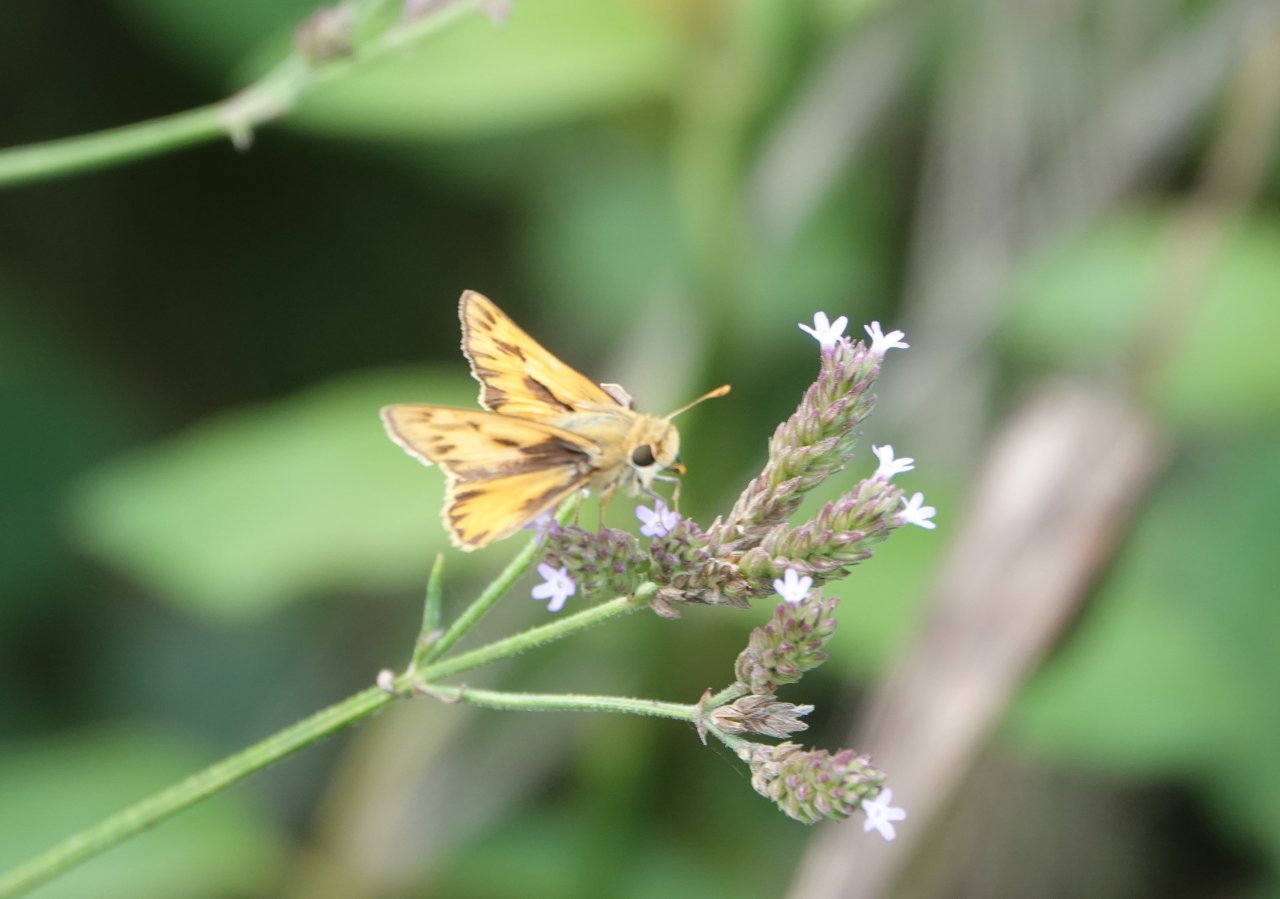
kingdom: Animalia
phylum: Arthropoda
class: Insecta
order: Lepidoptera
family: Hesperiidae
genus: Hylephila
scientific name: Hylephila phyleus
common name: Fiery Skipper
